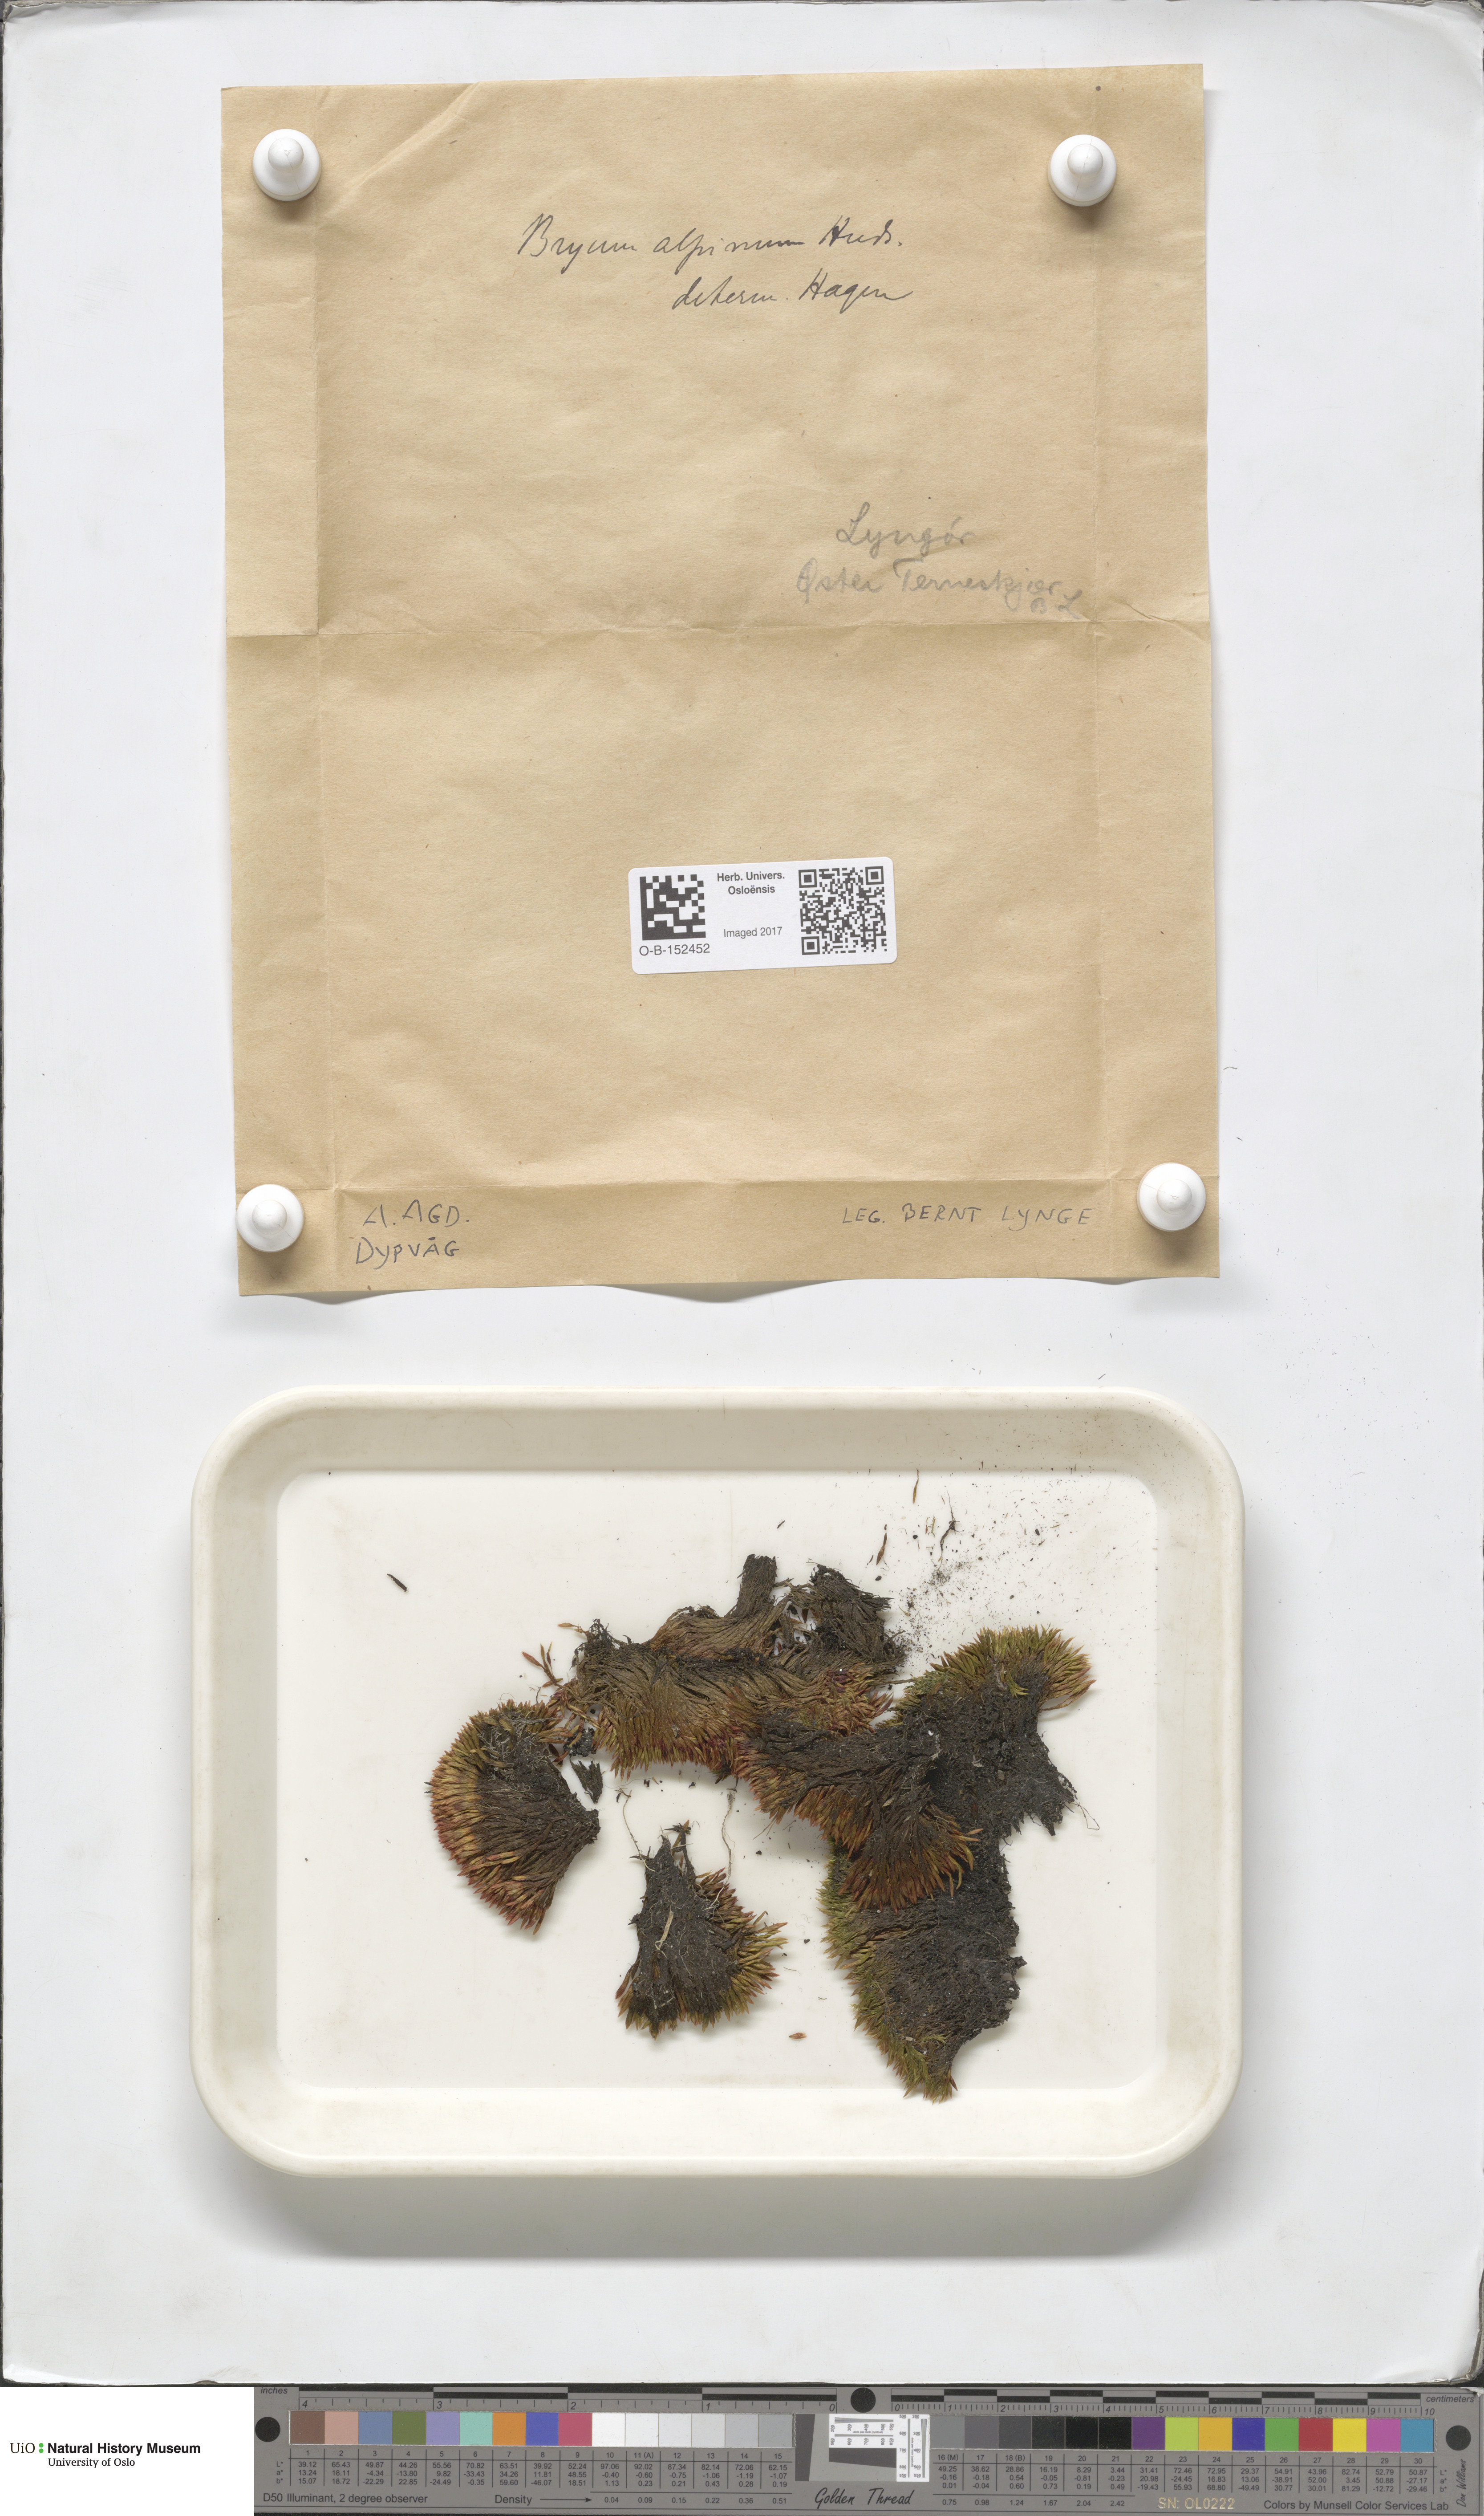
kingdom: Plantae
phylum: Bryophyta
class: Bryopsida
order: Bryales
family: Bryaceae
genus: Imbribryum
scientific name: Imbribryum alpinum
